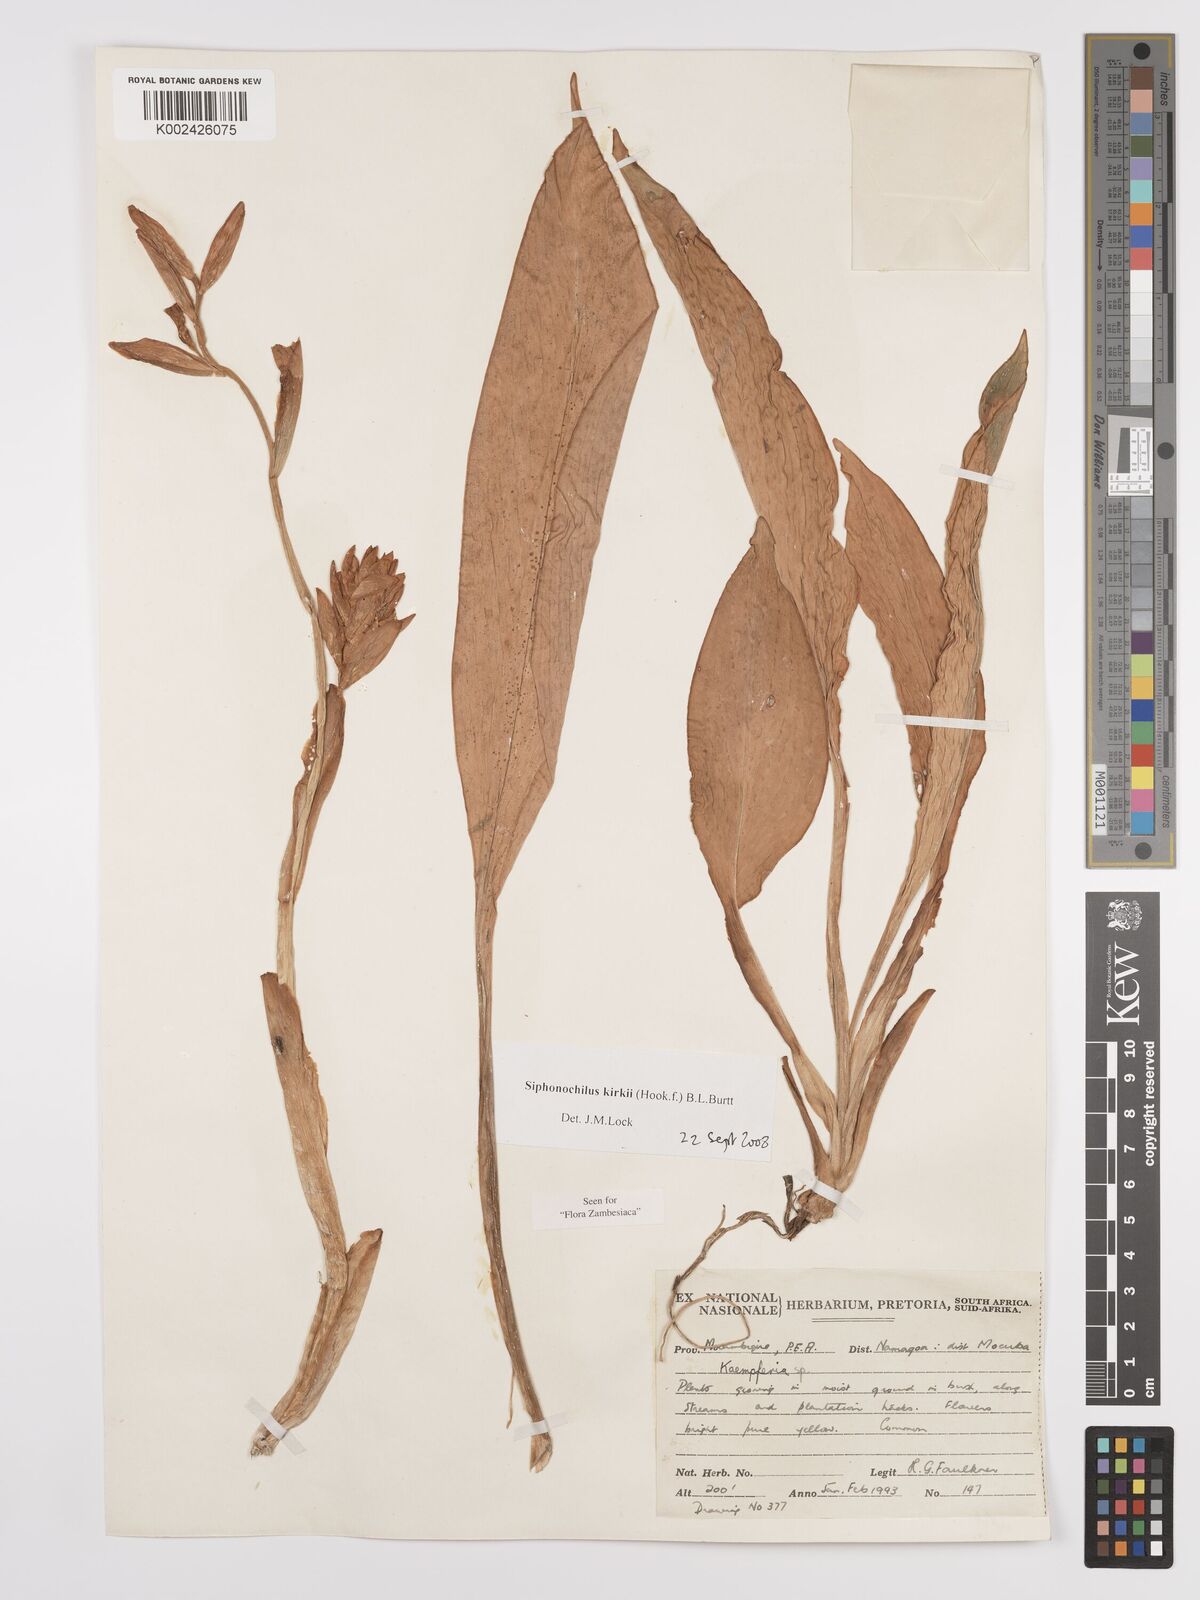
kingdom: Plantae
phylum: Tracheophyta
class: Liliopsida
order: Zingiberales
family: Zingiberaceae
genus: Siphonochilus
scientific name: Siphonochilus kirkii
